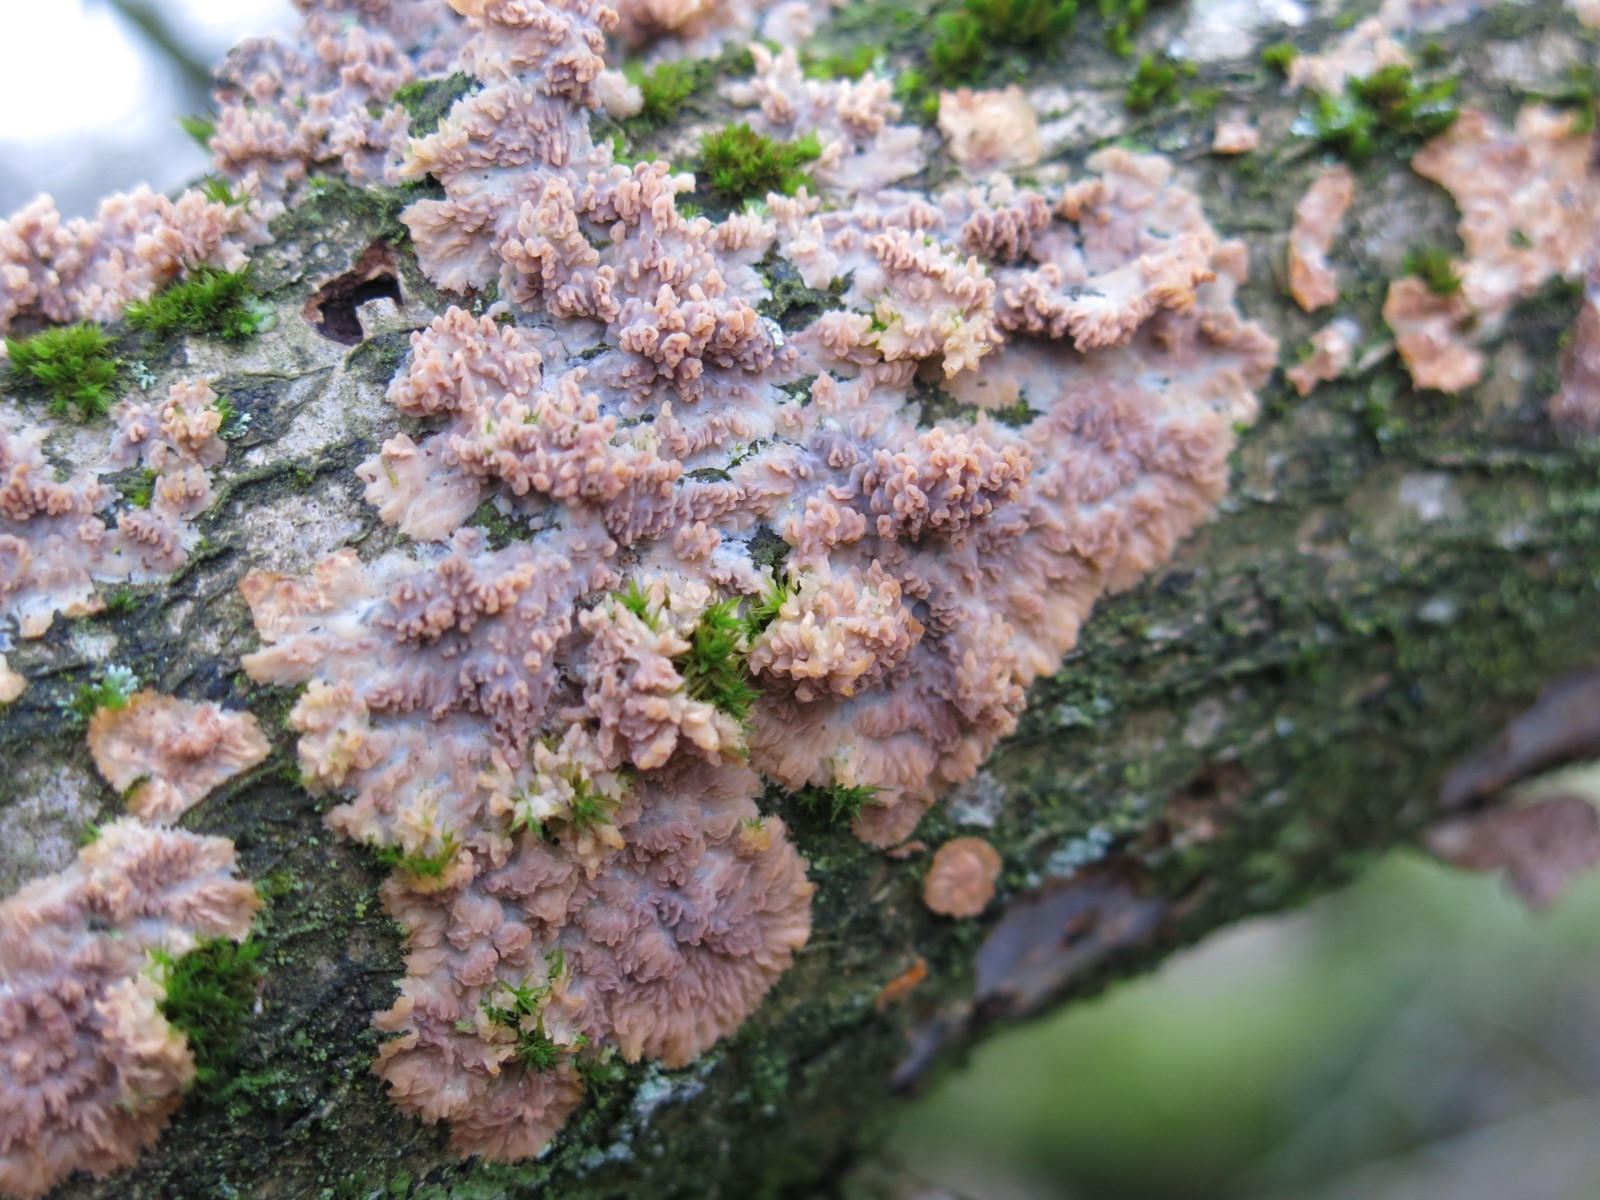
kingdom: Fungi
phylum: Basidiomycota
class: Agaricomycetes
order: Polyporales
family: Meruliaceae
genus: Phlebia
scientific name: Phlebia radiata
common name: stråle-åresvamp
